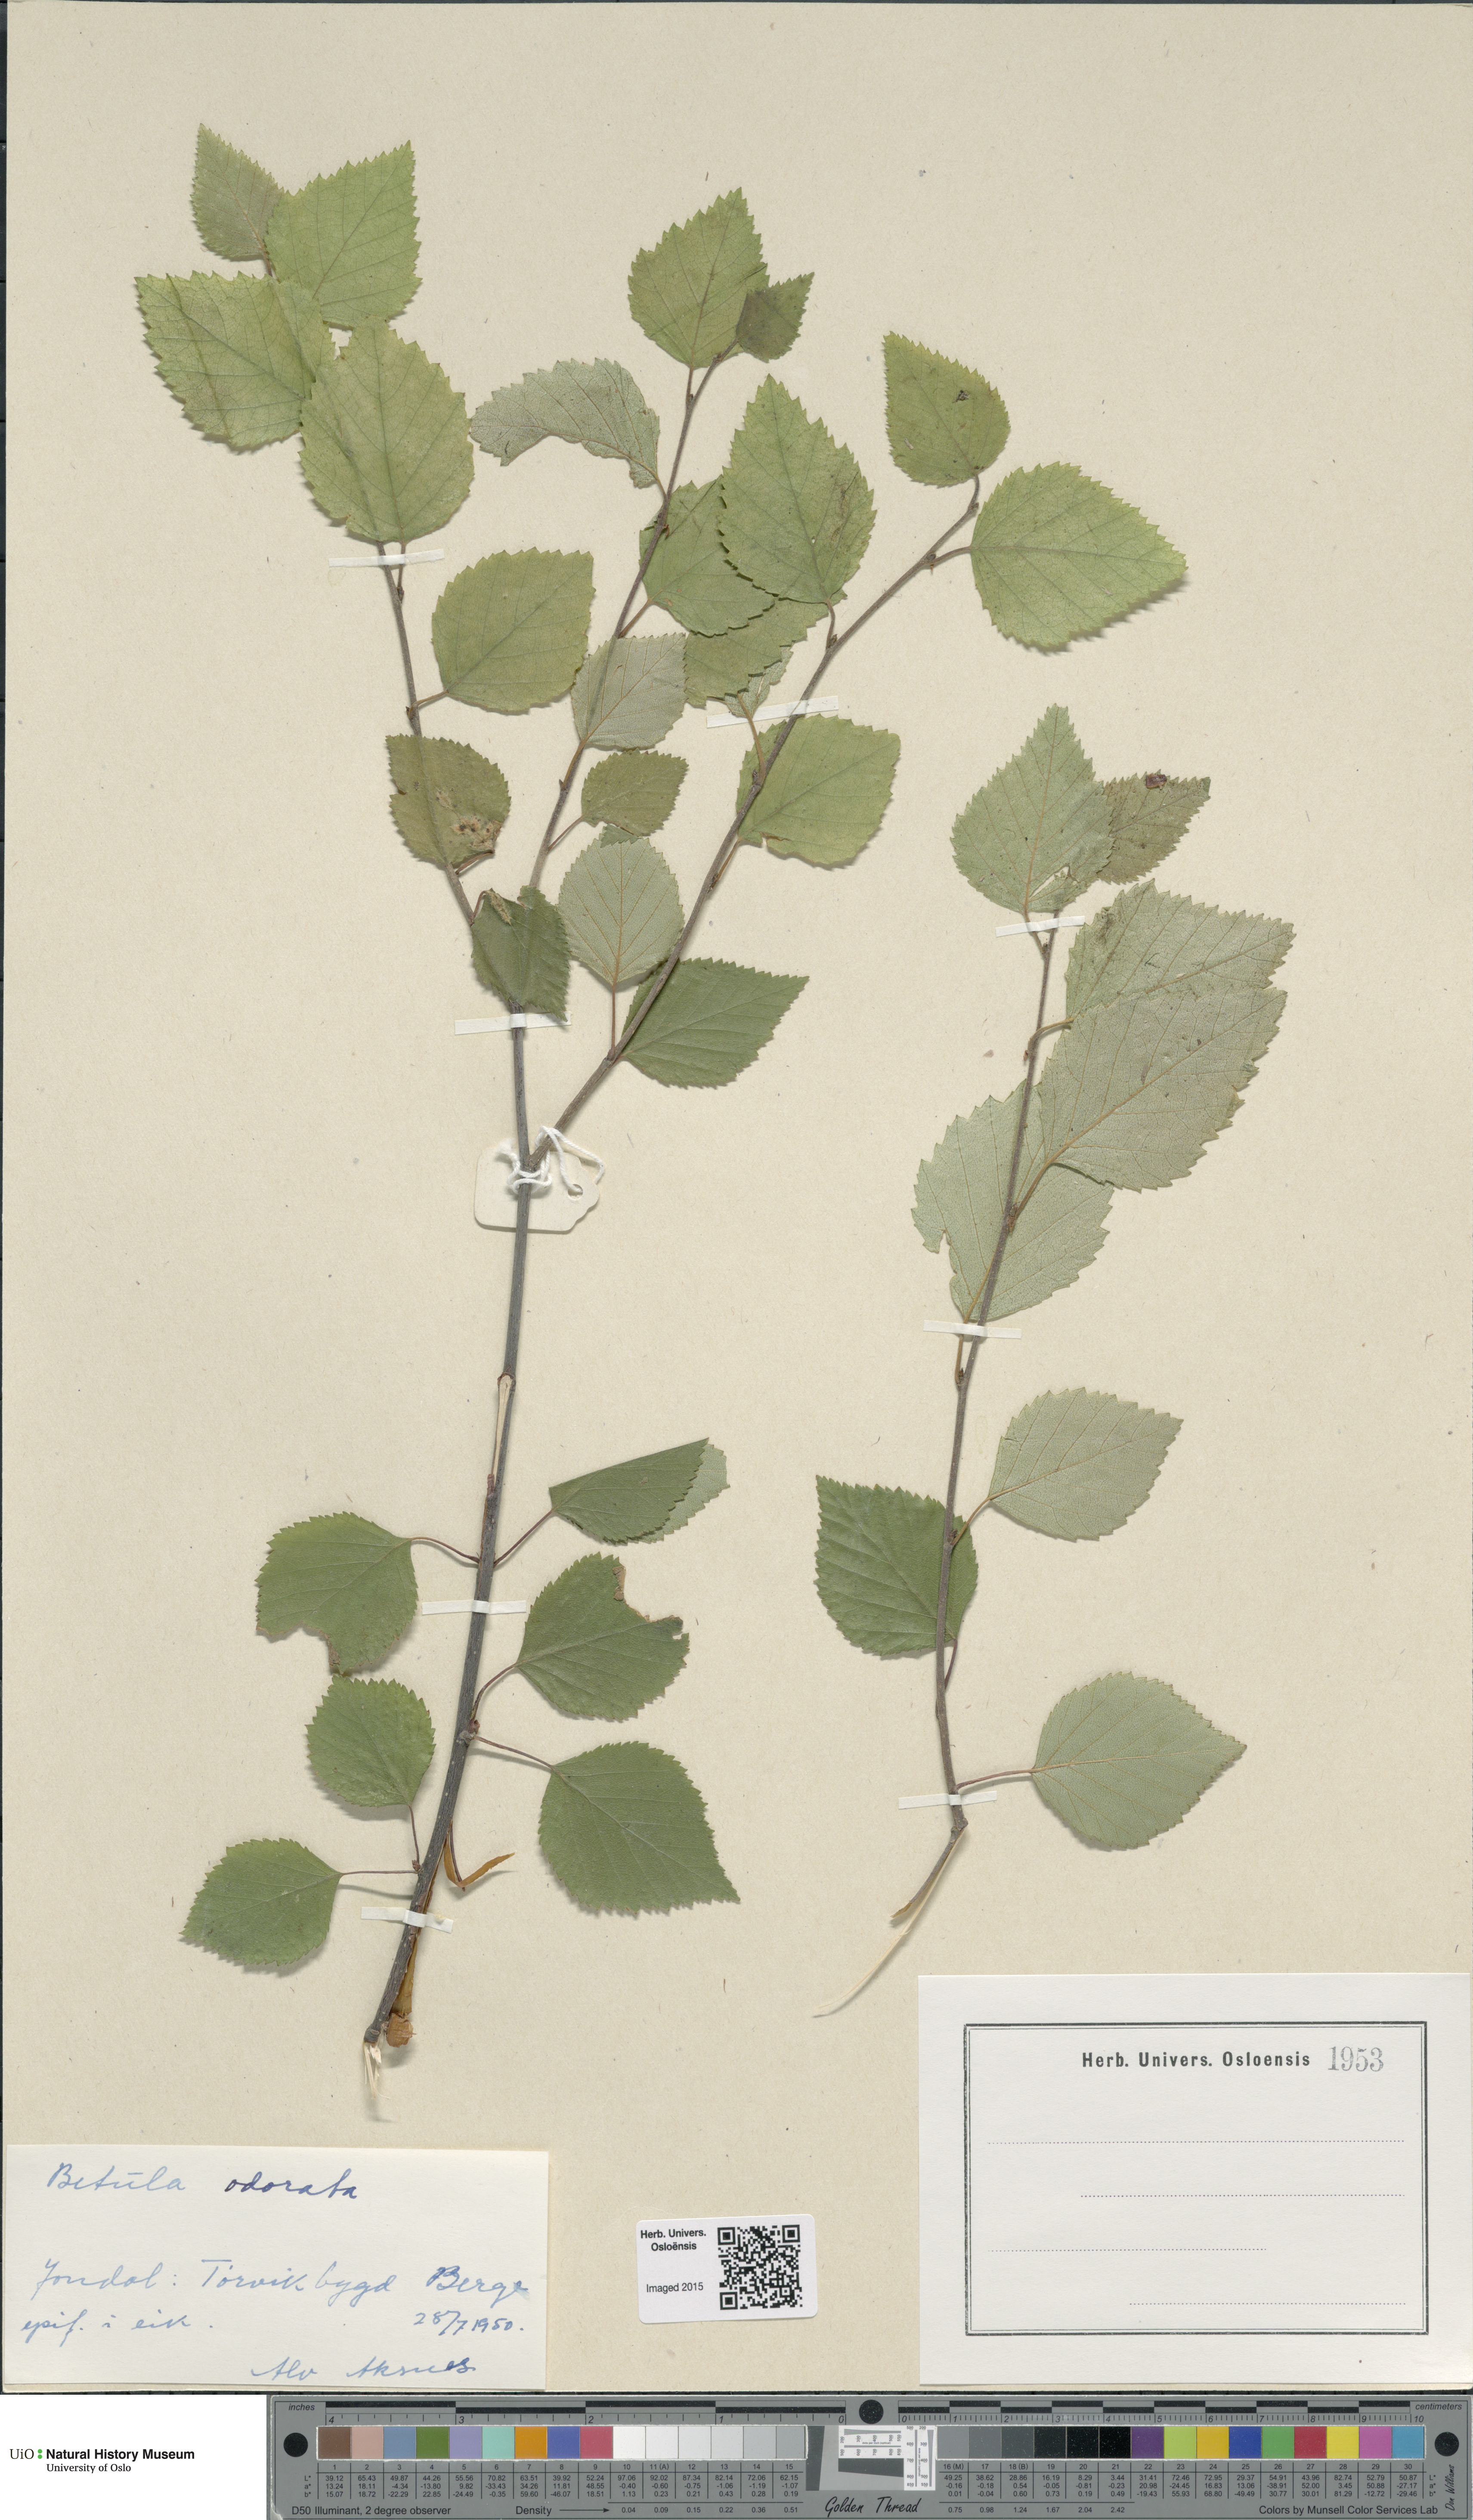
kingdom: Plantae
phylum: Tracheophyta
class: Magnoliopsida
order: Fagales
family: Betulaceae
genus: Betula
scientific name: Betula pubescens
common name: Downy birch
